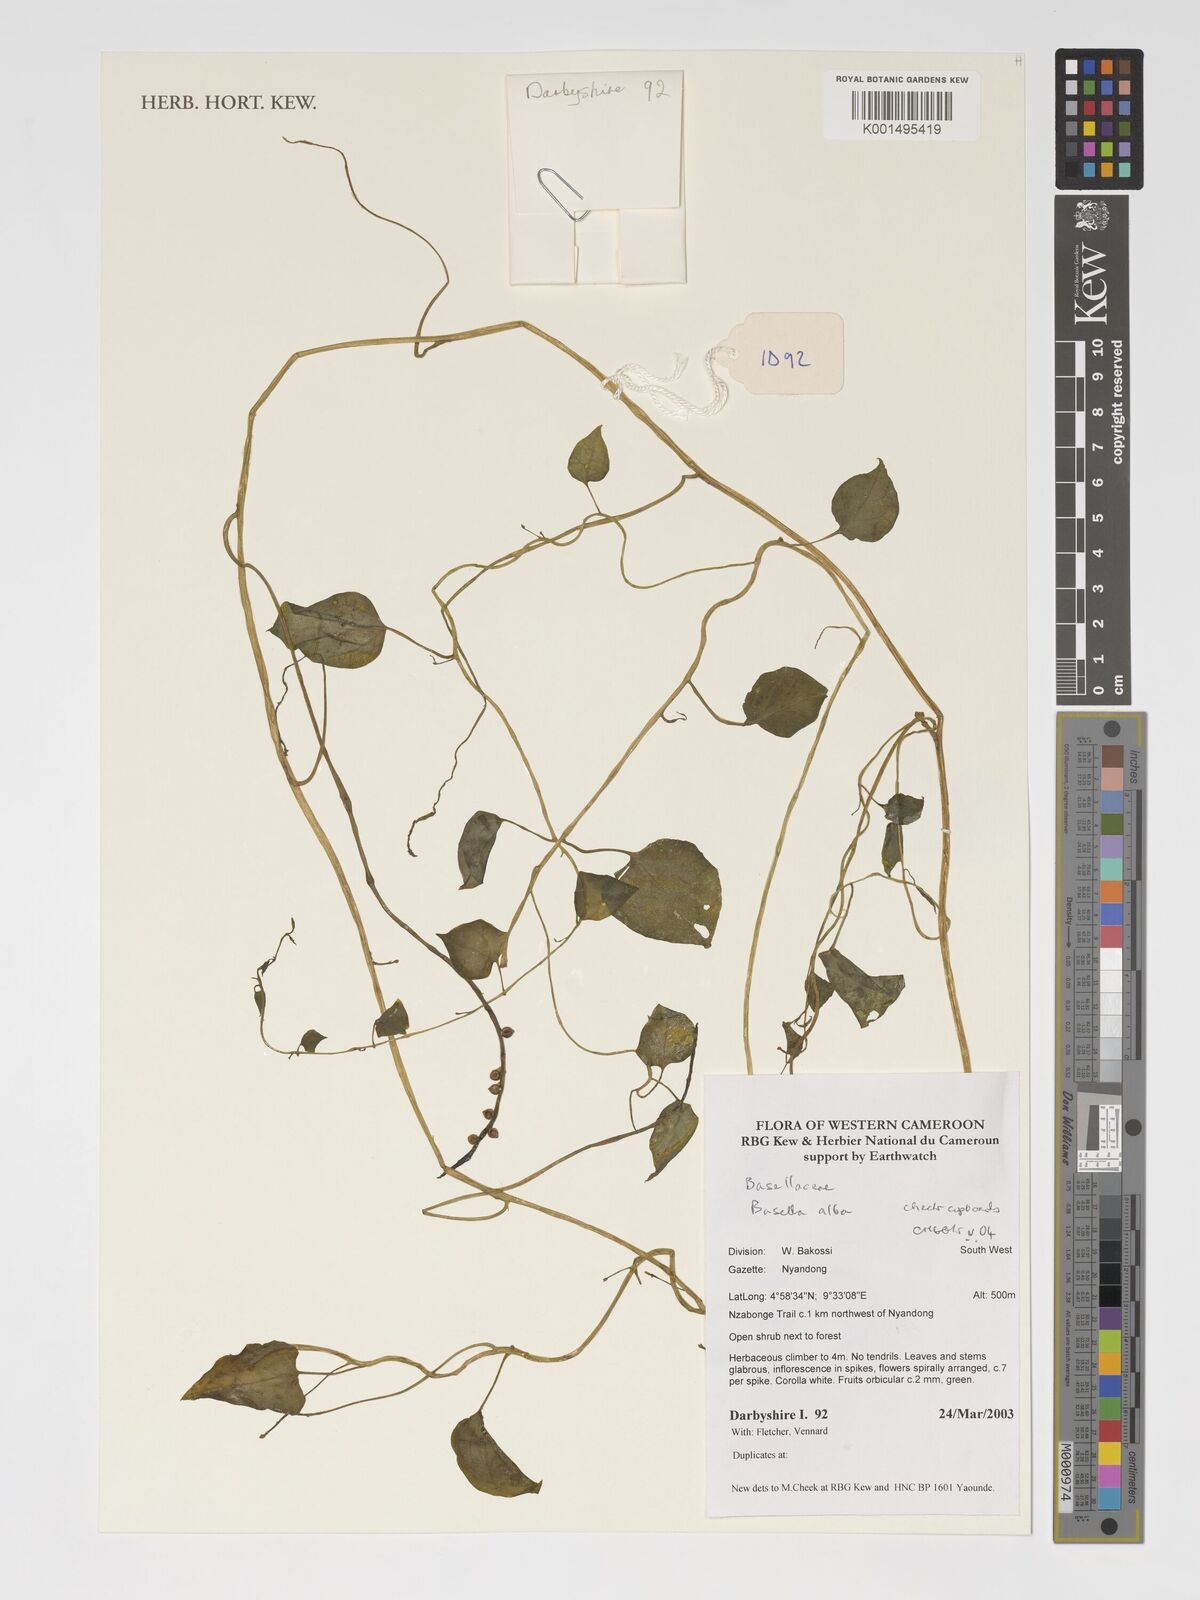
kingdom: Plantae
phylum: Tracheophyta
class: Magnoliopsida
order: Caryophyllales
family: Basellaceae
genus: Basella
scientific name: Basella alba
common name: Indian spinach
